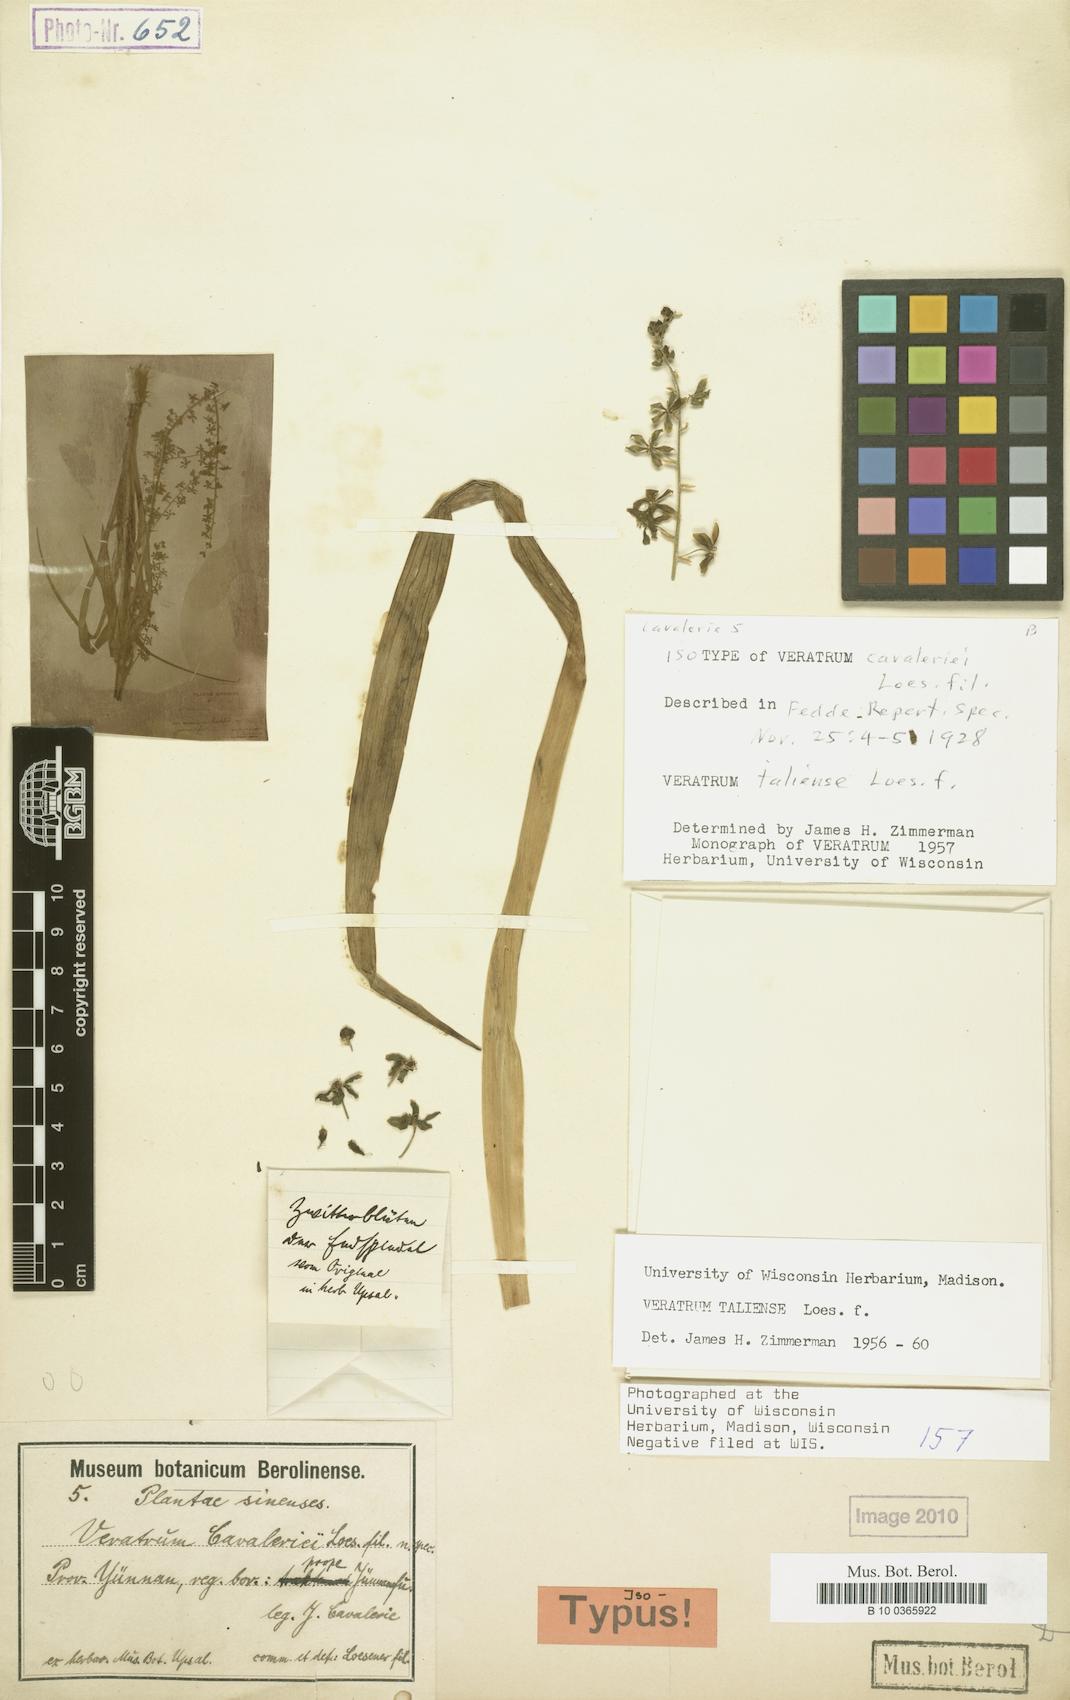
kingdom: Plantae
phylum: Tracheophyta
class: Liliopsida
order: Liliales
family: Melanthiaceae
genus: Veratrum
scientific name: Veratrum taliense
